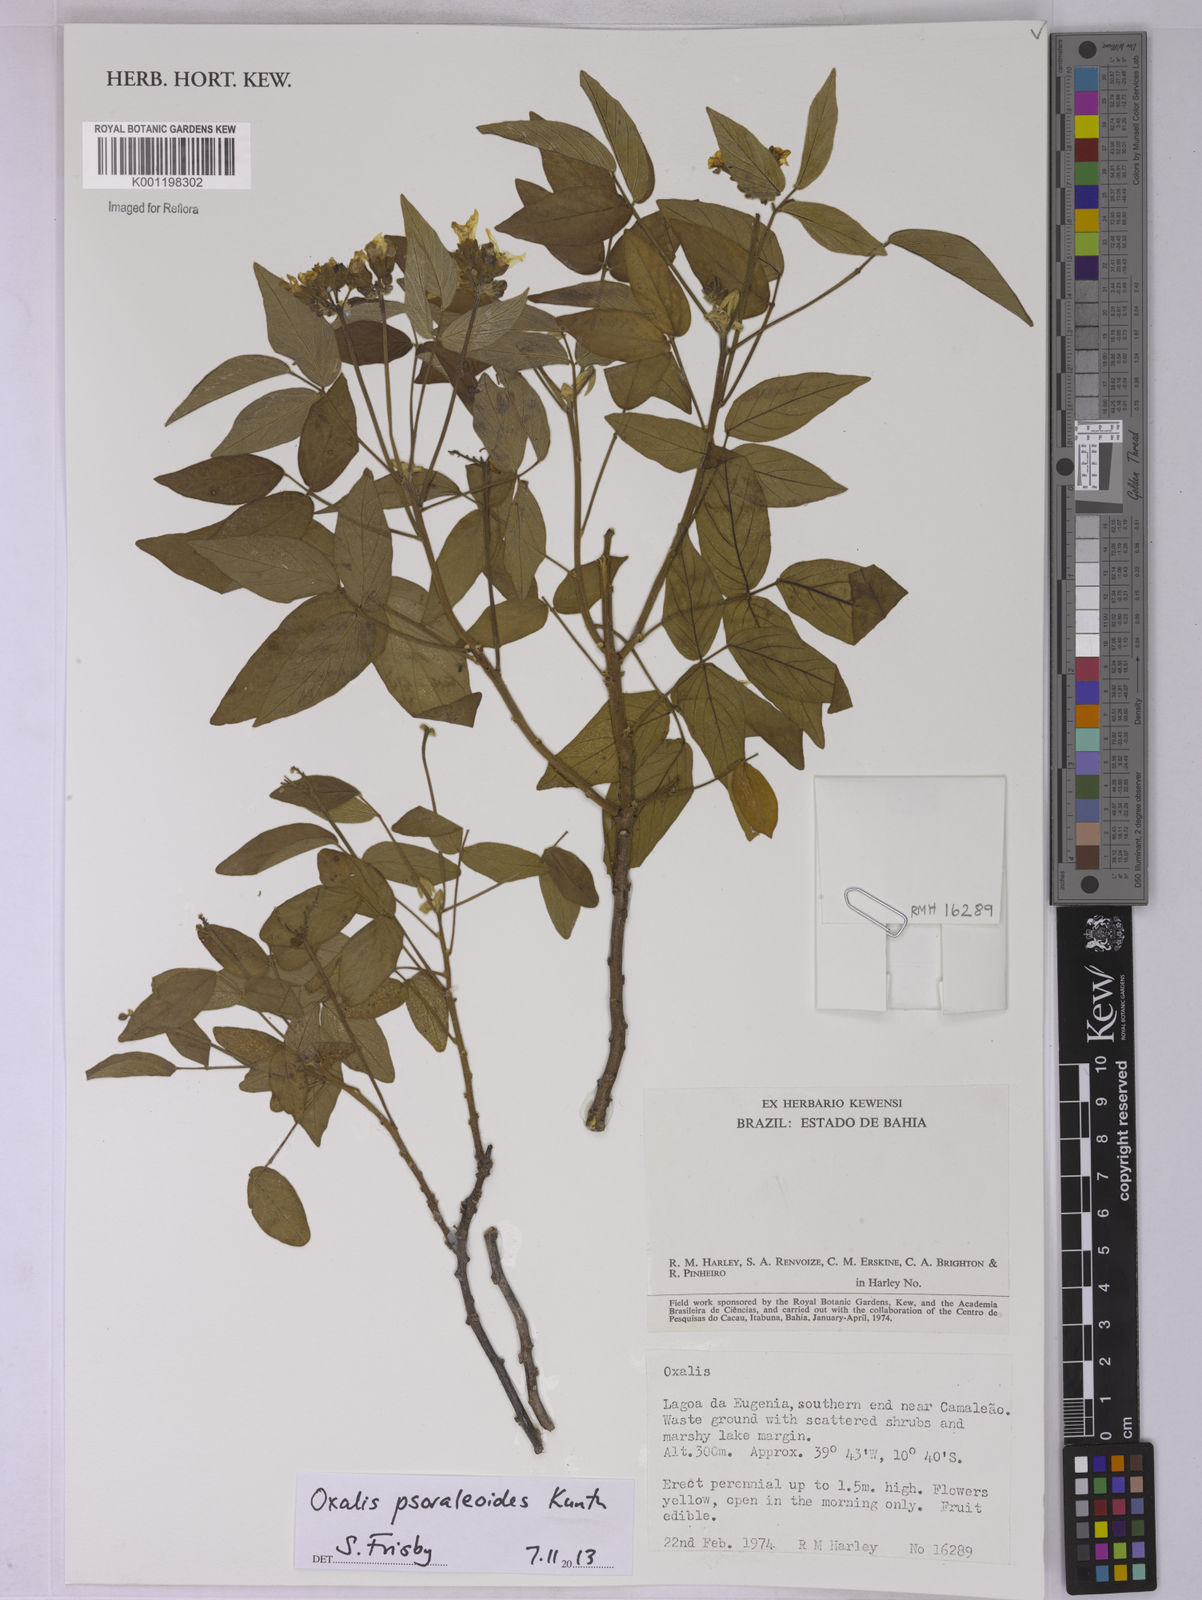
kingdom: Plantae
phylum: Tracheophyta
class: Magnoliopsida
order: Oxalidales
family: Oxalidaceae
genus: Oxalis
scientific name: Oxalis psoraleoides
